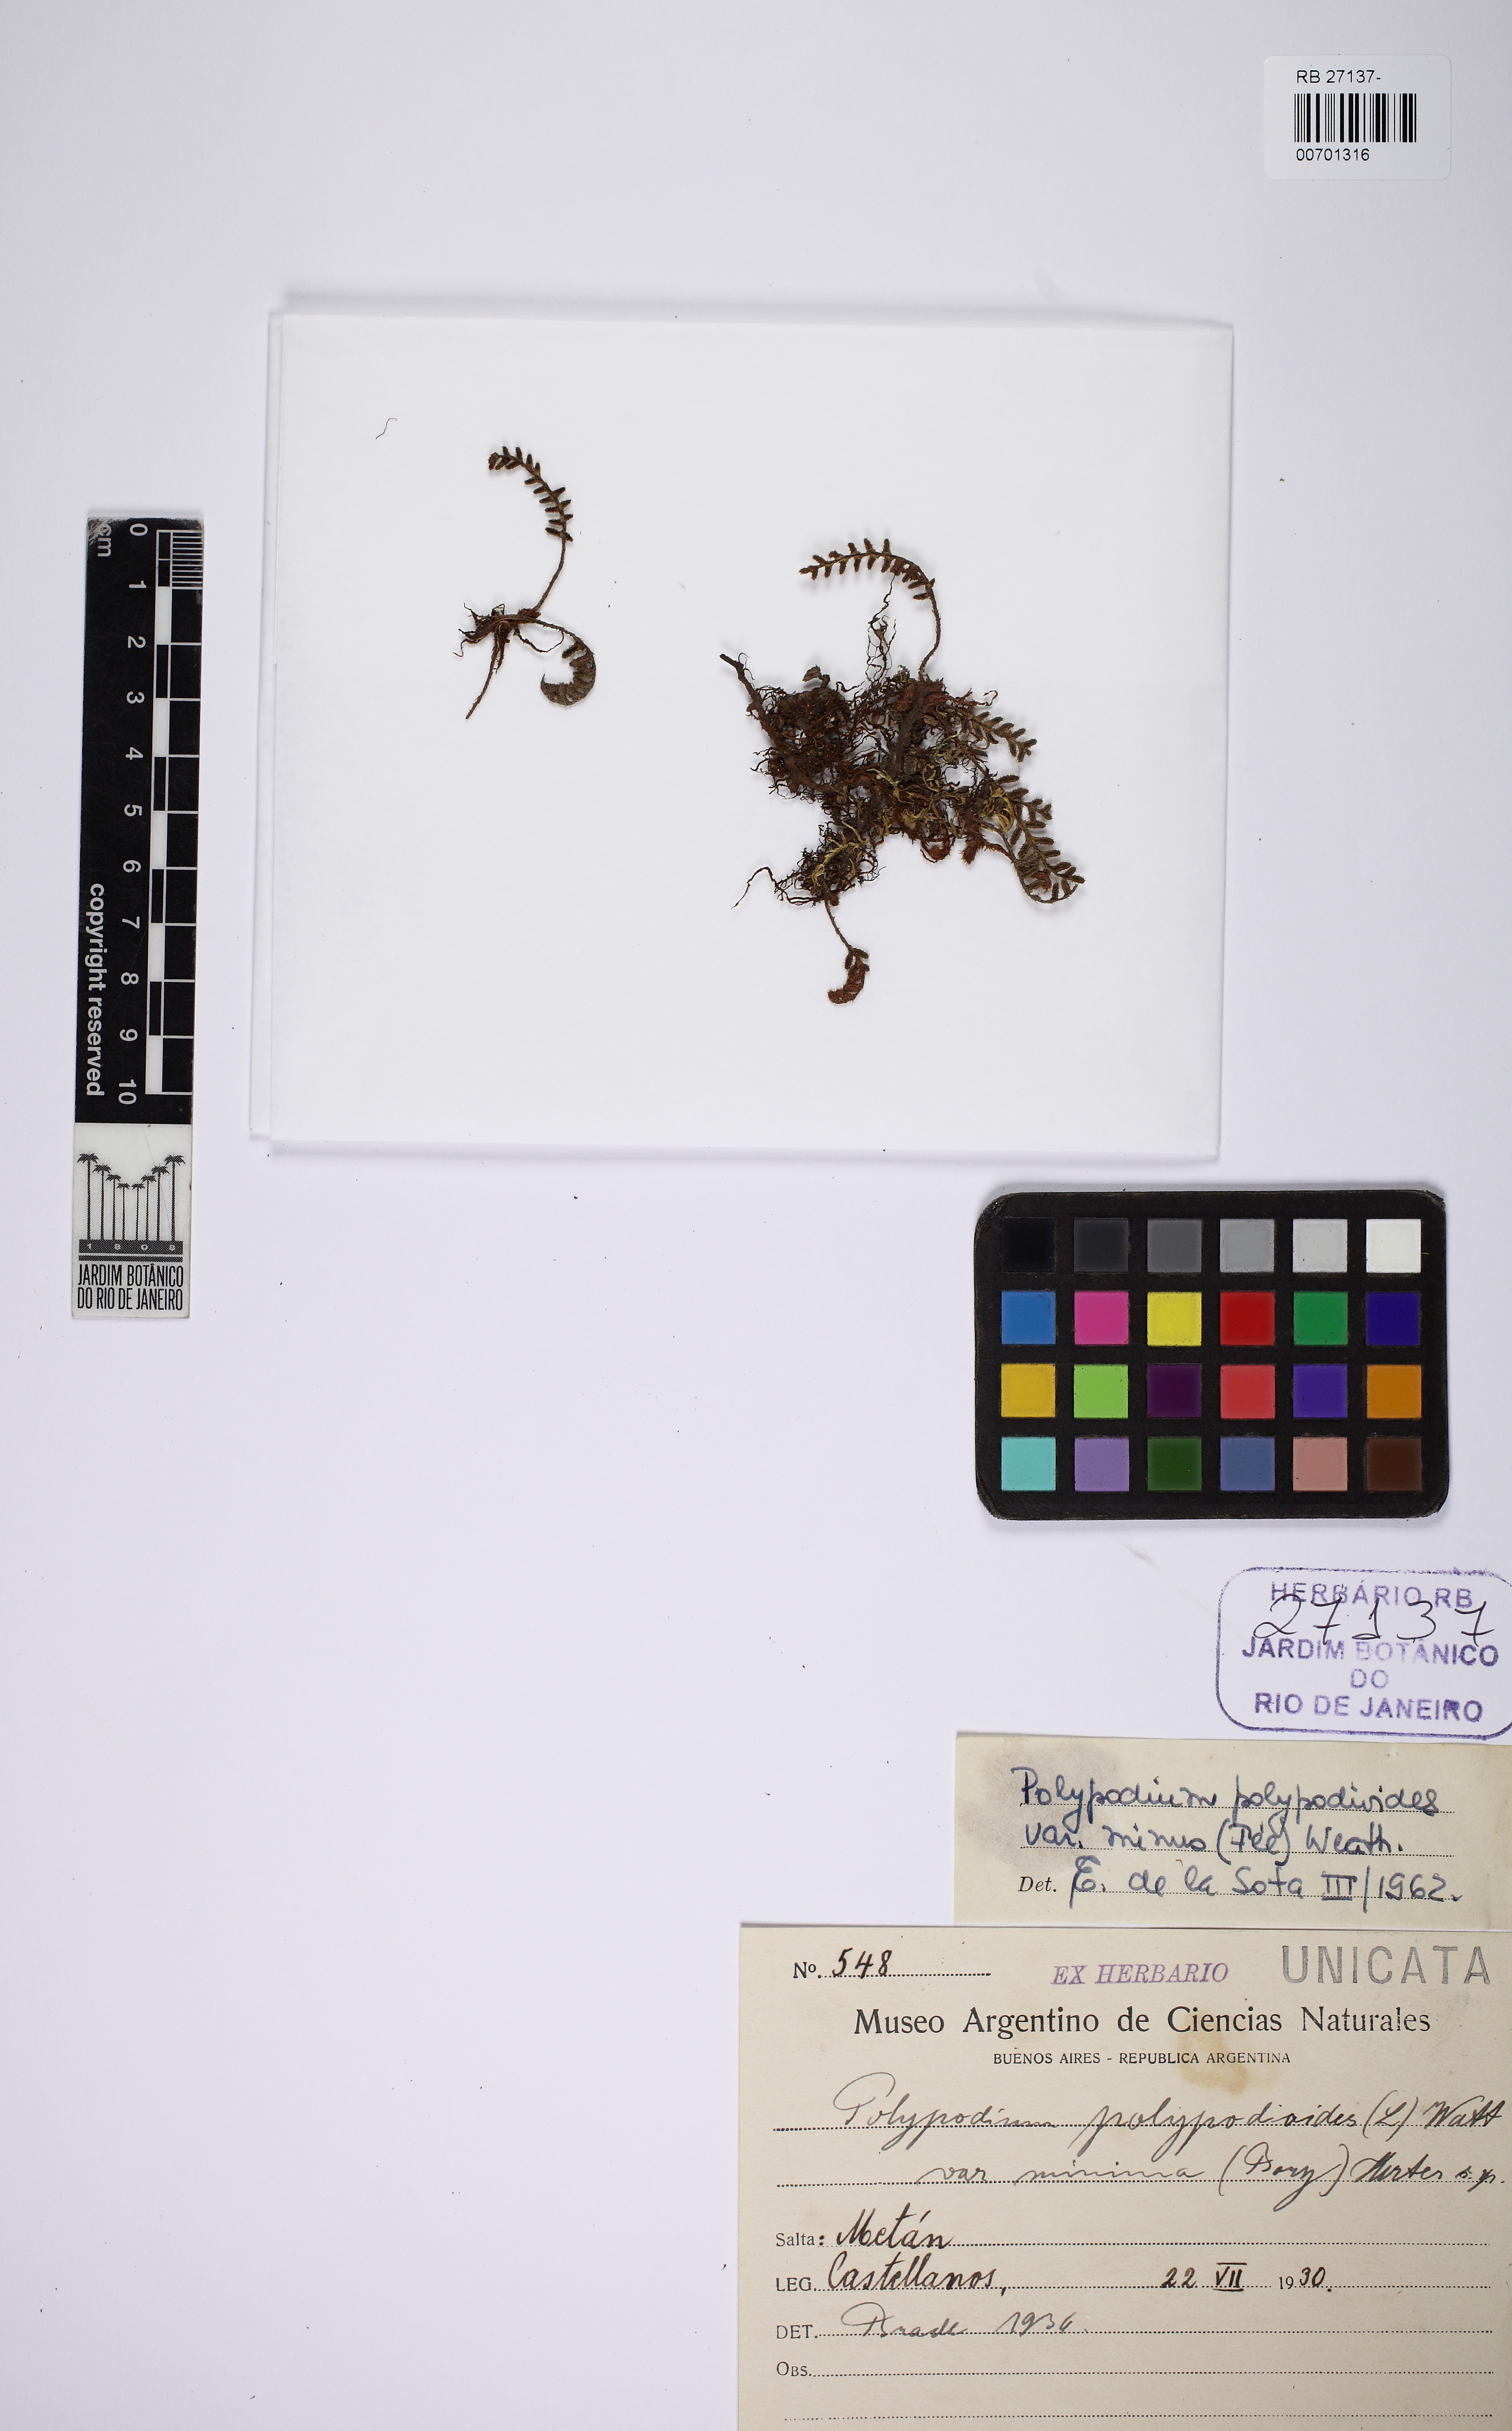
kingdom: Plantae
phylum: Tracheophyta
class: Polypodiopsida
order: Polypodiales
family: Polypodiaceae
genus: Pleopeltis
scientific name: Pleopeltis minima
